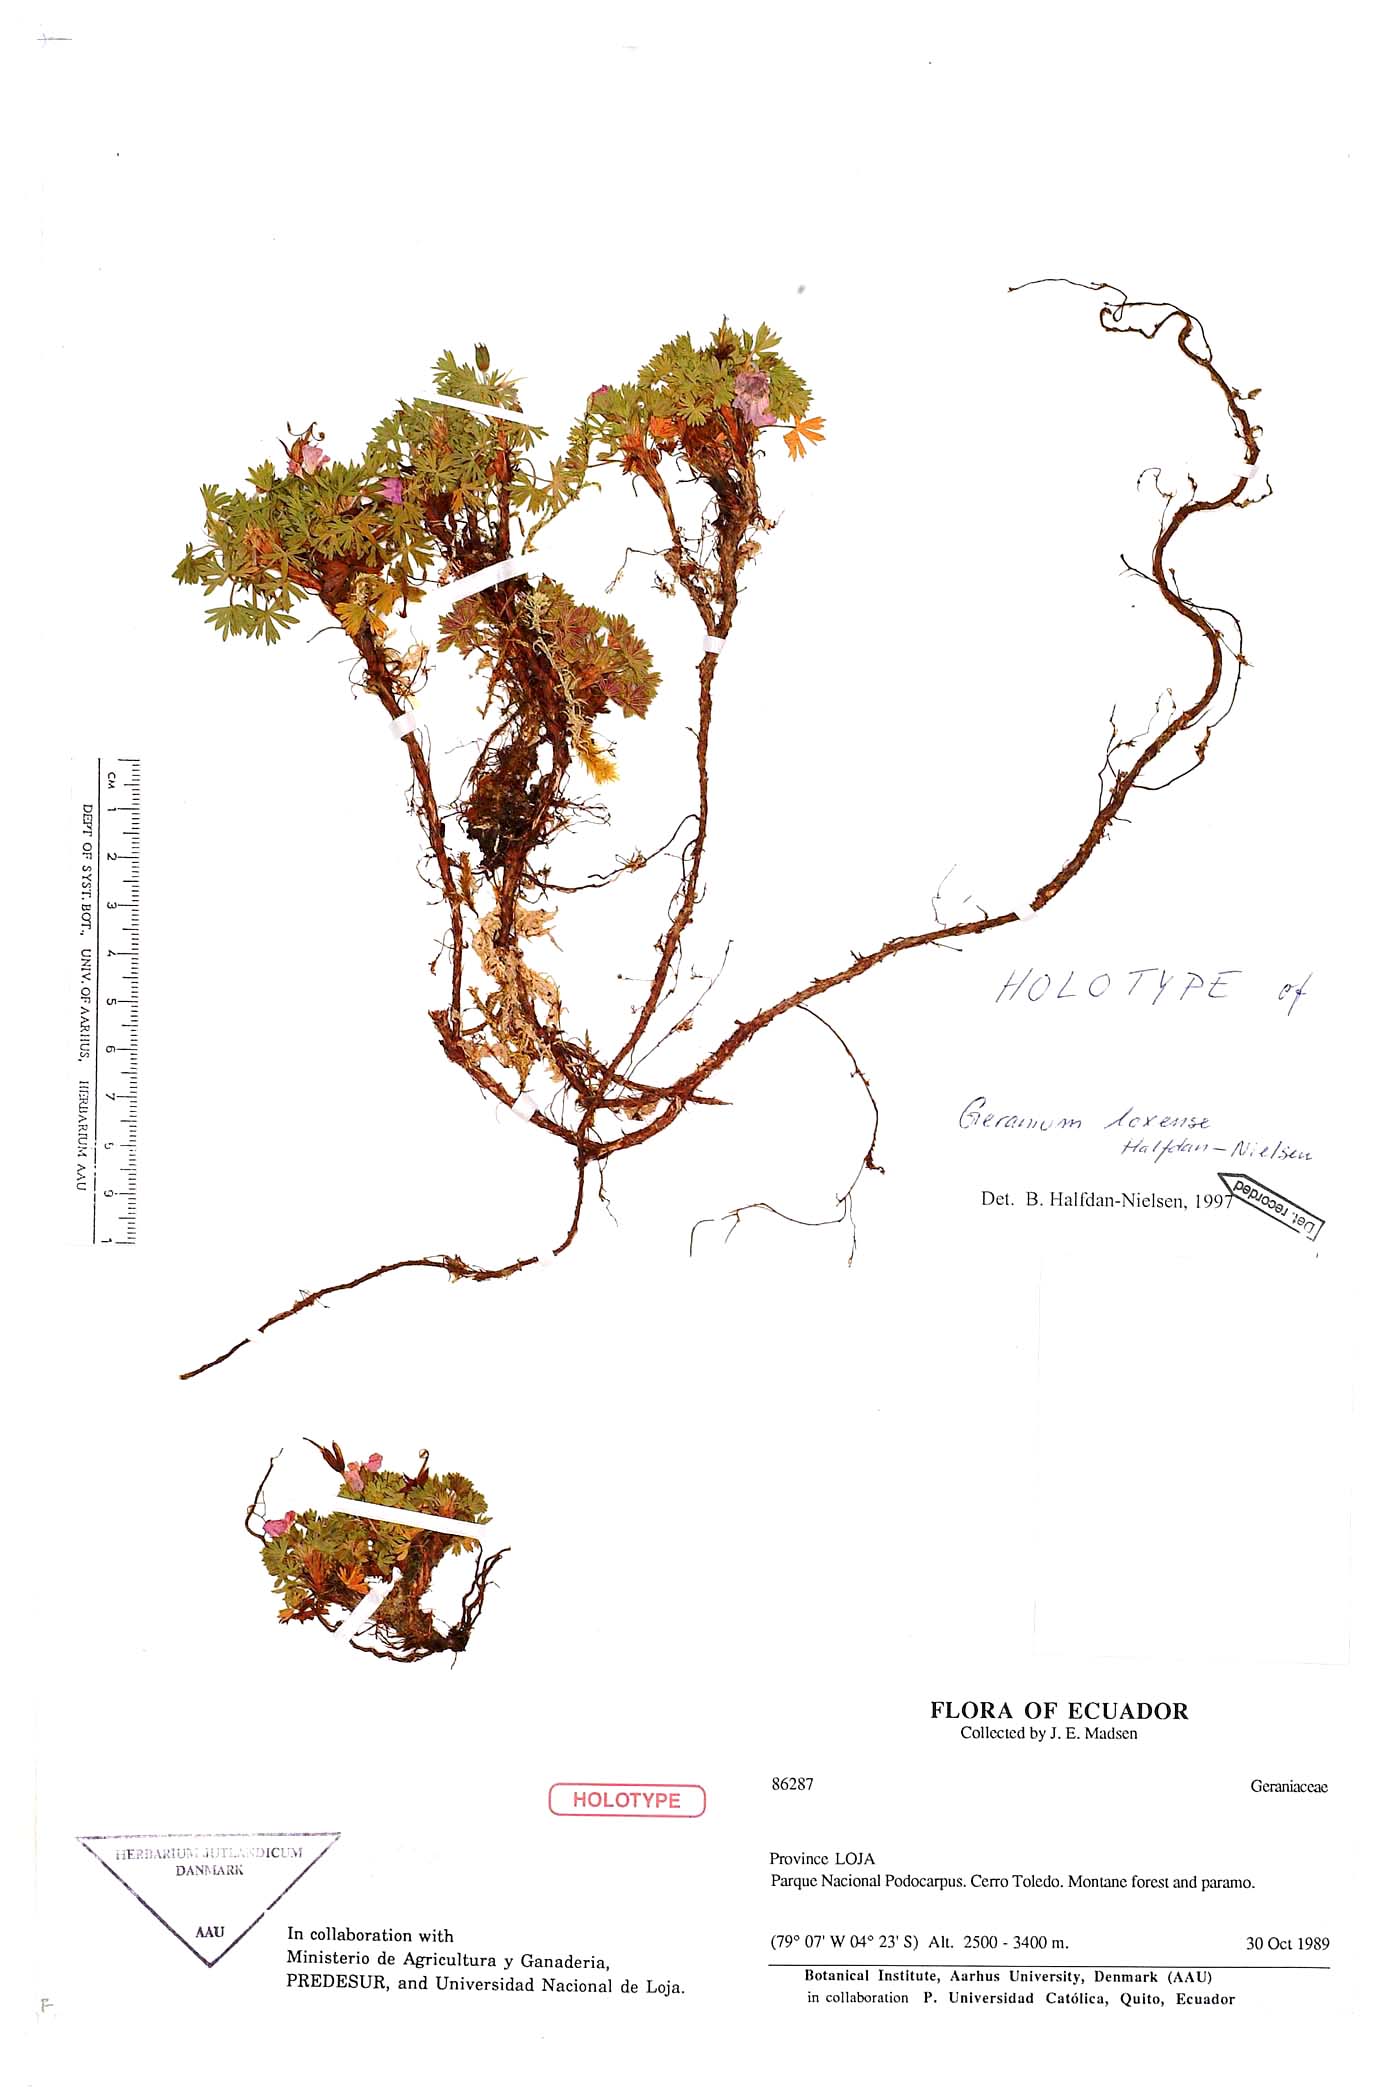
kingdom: Plantae
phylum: Tracheophyta
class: Magnoliopsida
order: Geraniales
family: Geraniaceae
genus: Geranium
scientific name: Geranium loxense
